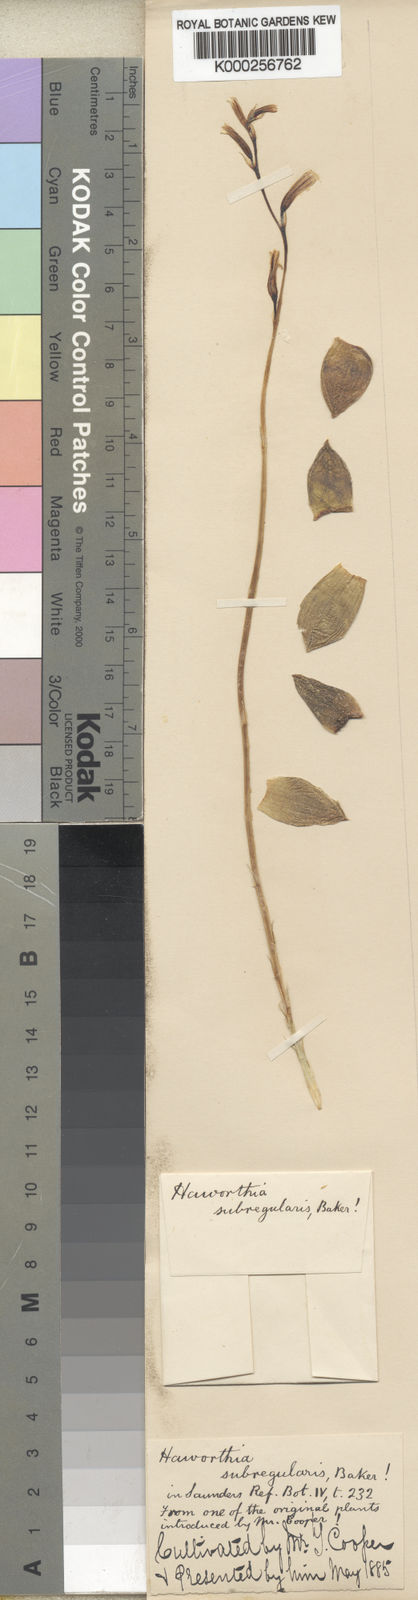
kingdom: Plantae
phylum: Tracheophyta
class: Liliopsida
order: Asparagales
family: Asphodelaceae
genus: Haworthia
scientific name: Haworthia reticulata
